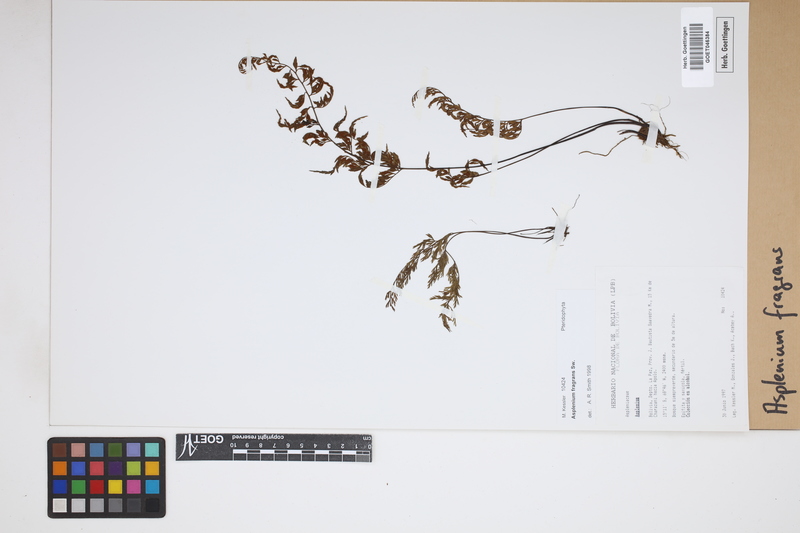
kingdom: Plantae
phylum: Tracheophyta
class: Polypodiopsida
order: Polypodiales
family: Aspleniaceae
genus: Asplenium
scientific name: Asplenium fragrans
